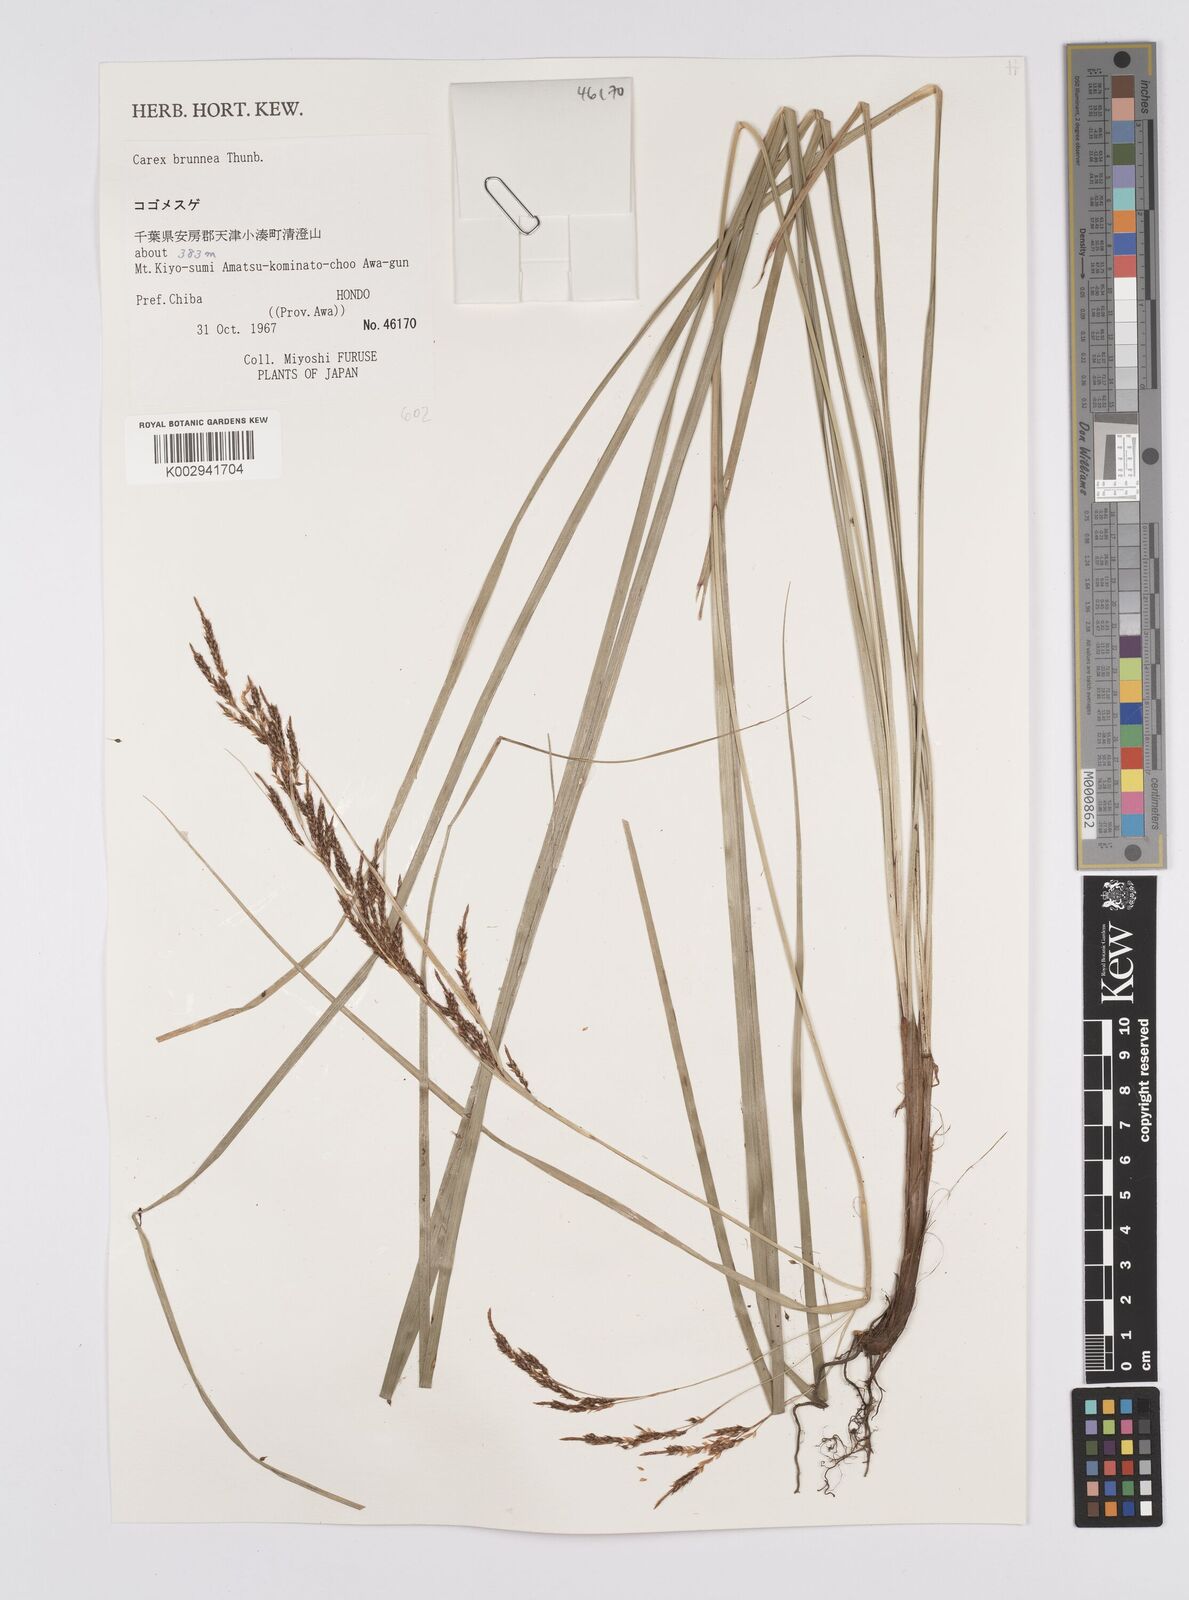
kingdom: Plantae
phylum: Tracheophyta
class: Liliopsida
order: Poales
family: Cyperaceae
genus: Carex
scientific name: Carex brunnea
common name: Greater brown sedge
